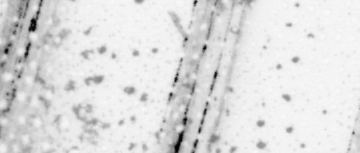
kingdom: Animalia
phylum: Chordata
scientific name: Chordata
